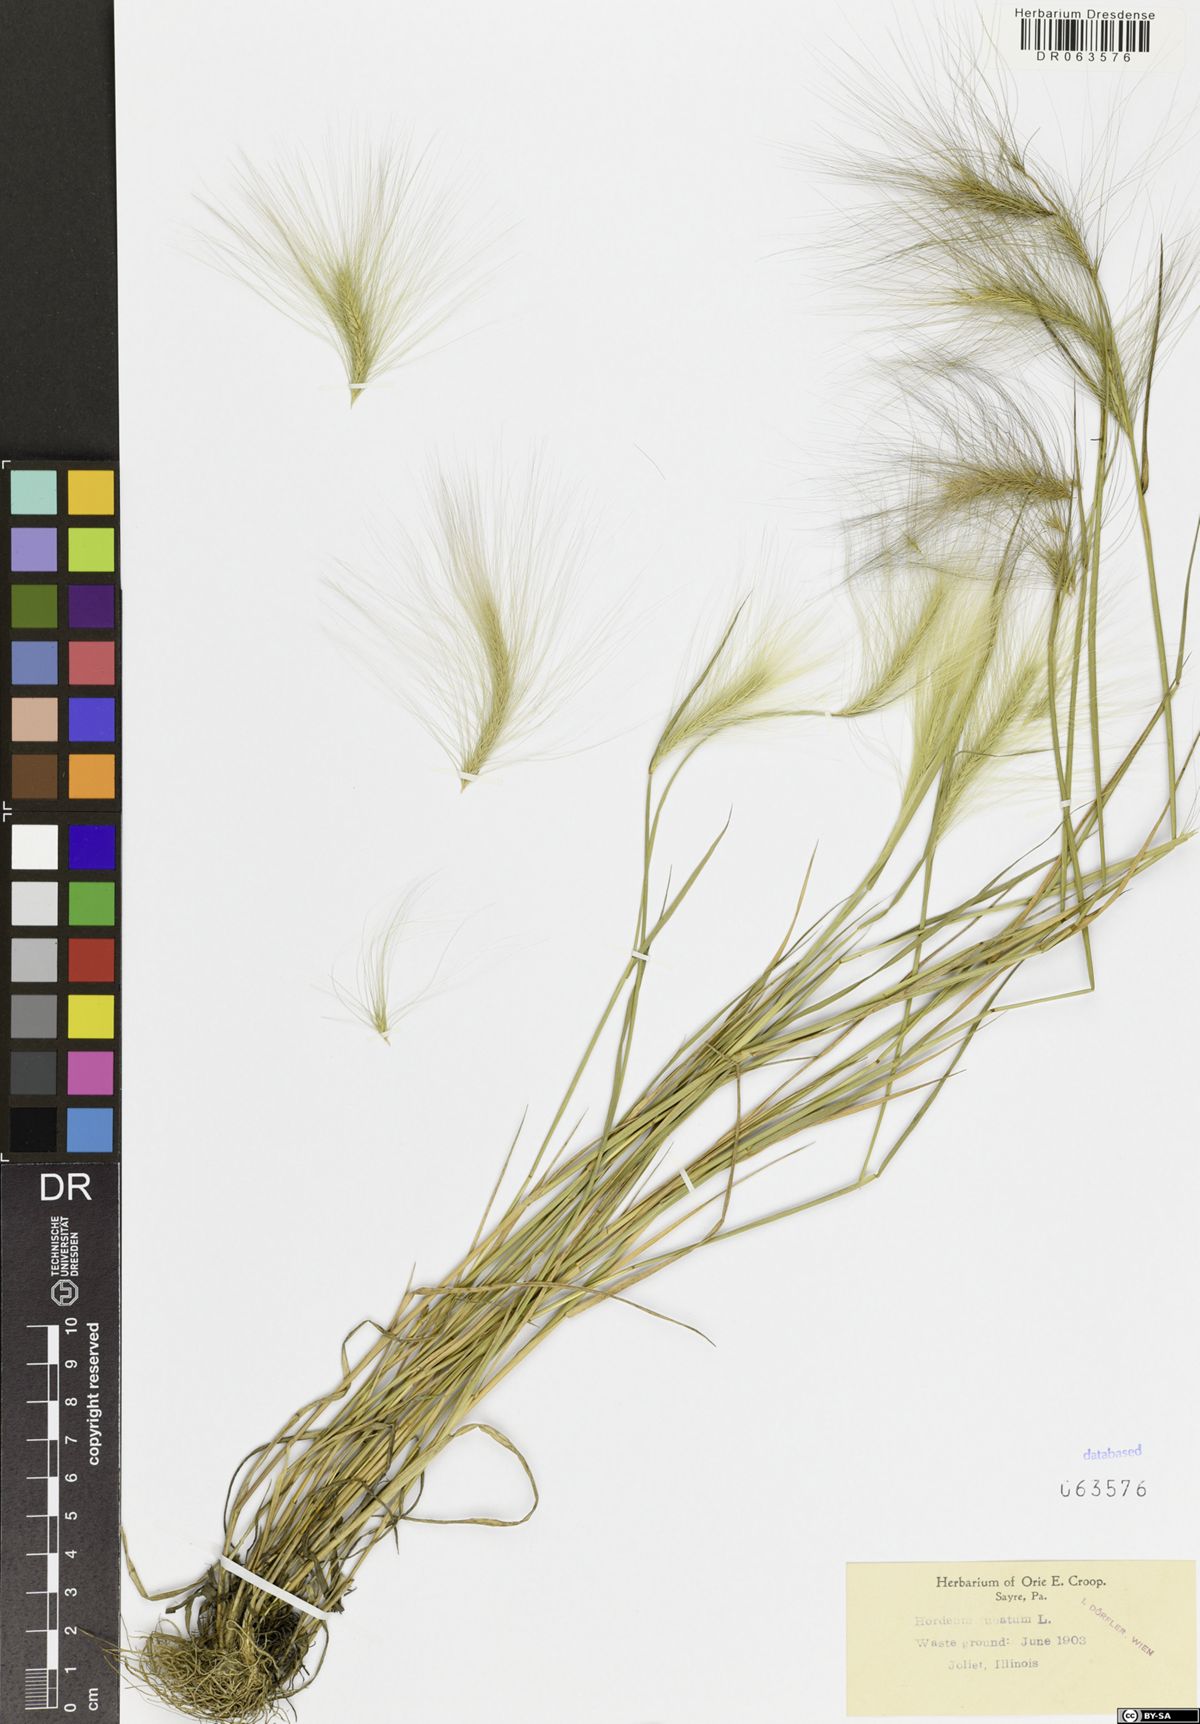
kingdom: Plantae
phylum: Tracheophyta
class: Liliopsida
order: Poales
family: Poaceae
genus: Hordeum
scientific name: Hordeum jubatum
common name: Foxtail barley
